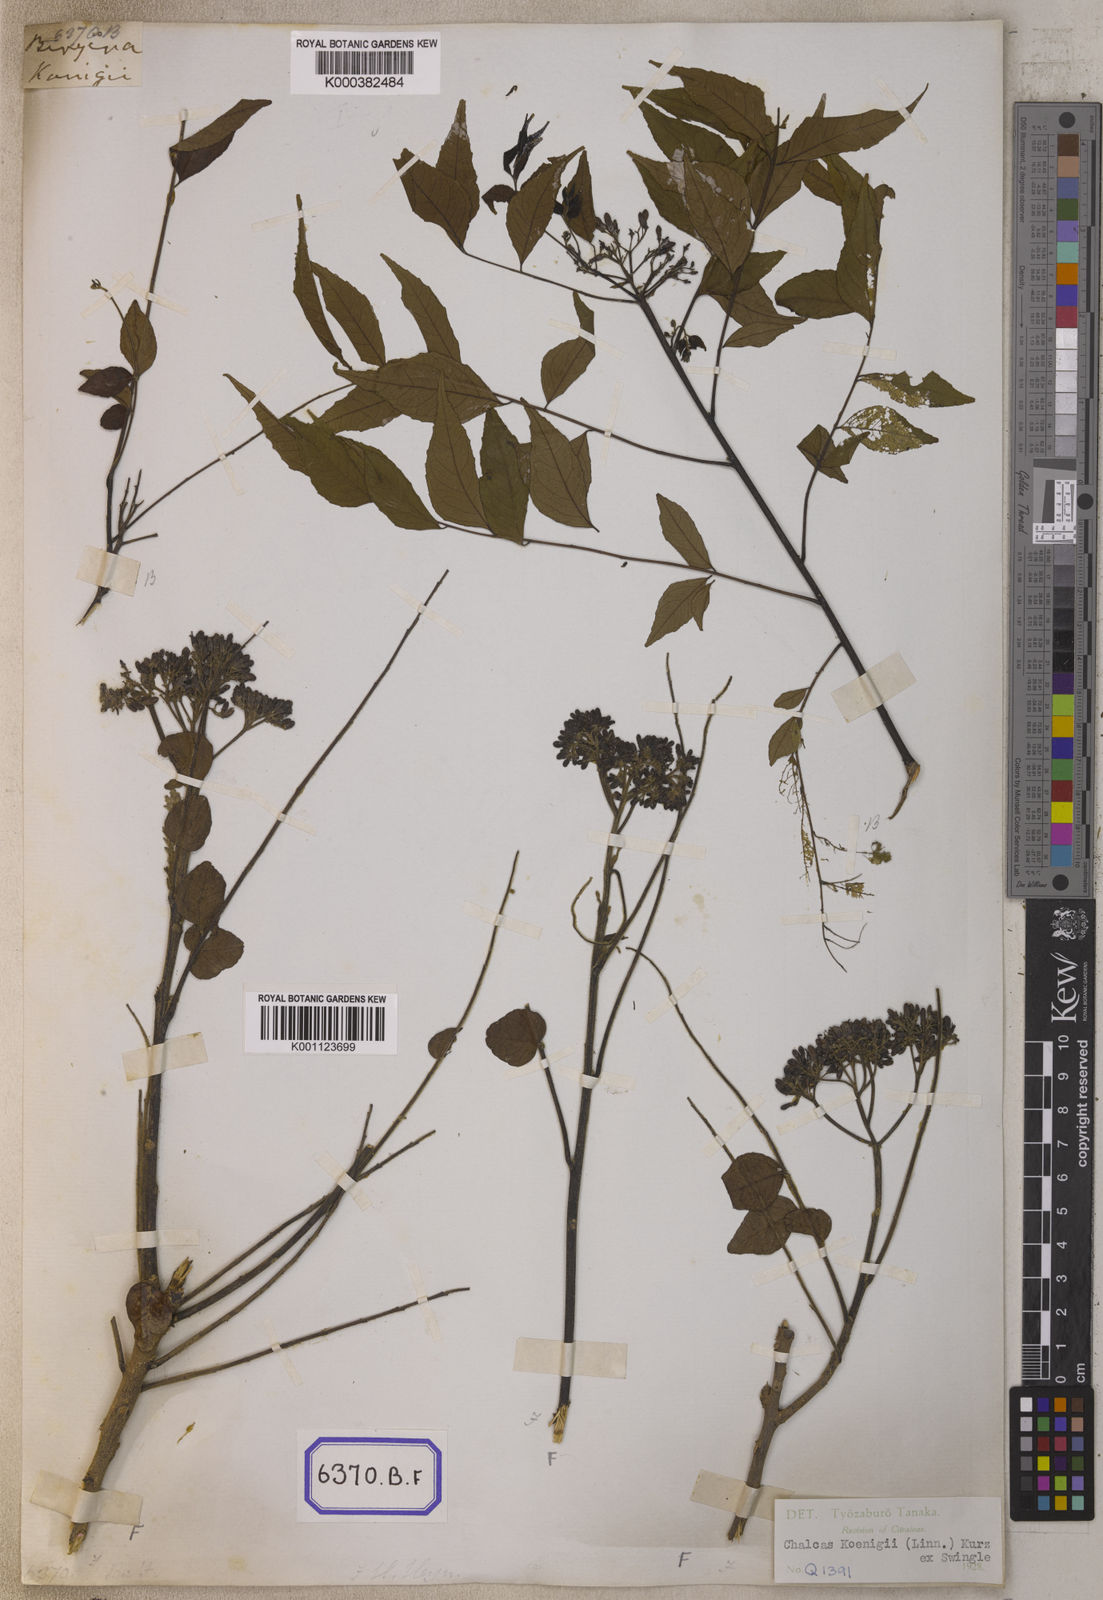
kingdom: Plantae
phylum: Tracheophyta
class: Magnoliopsida
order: Sapindales
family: Rutaceae
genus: Murraya
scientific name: Murraya koenigii
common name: Curry-plant
